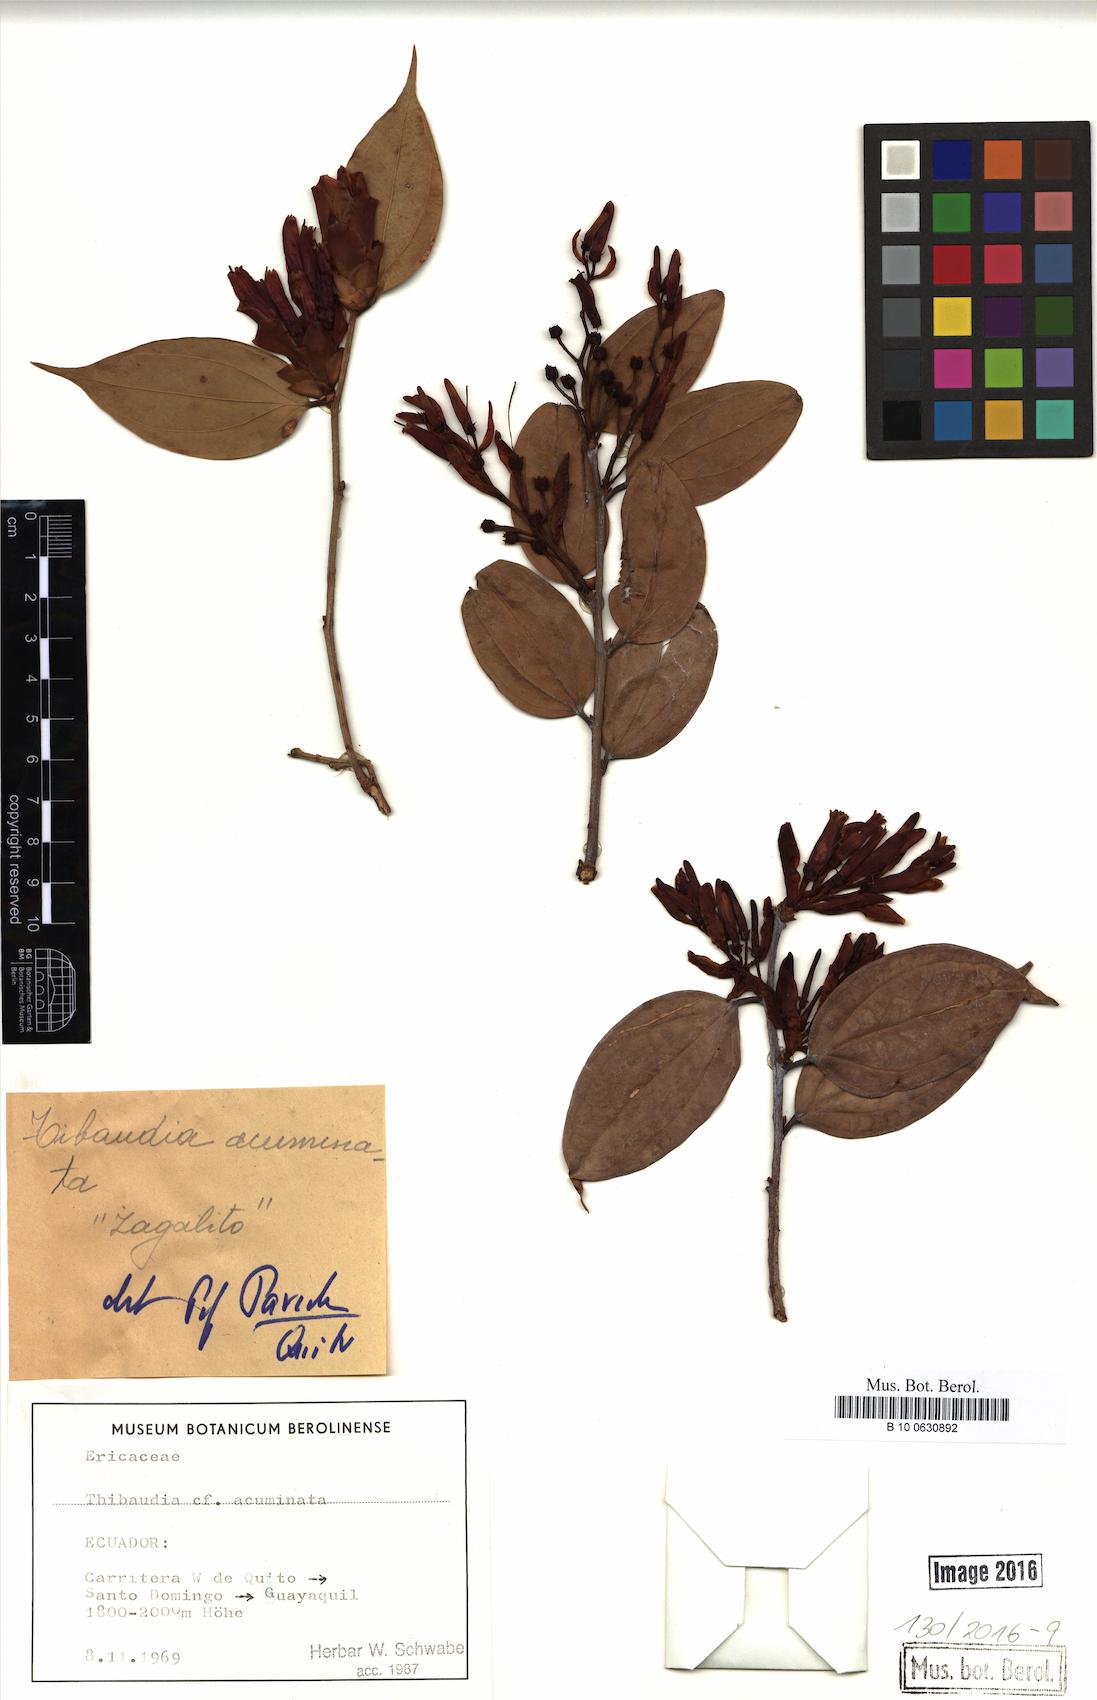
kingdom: Plantae
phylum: Tracheophyta
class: Magnoliopsida
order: Ericales
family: Ericaceae
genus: Cavendishia
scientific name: Cavendishia bracteata
